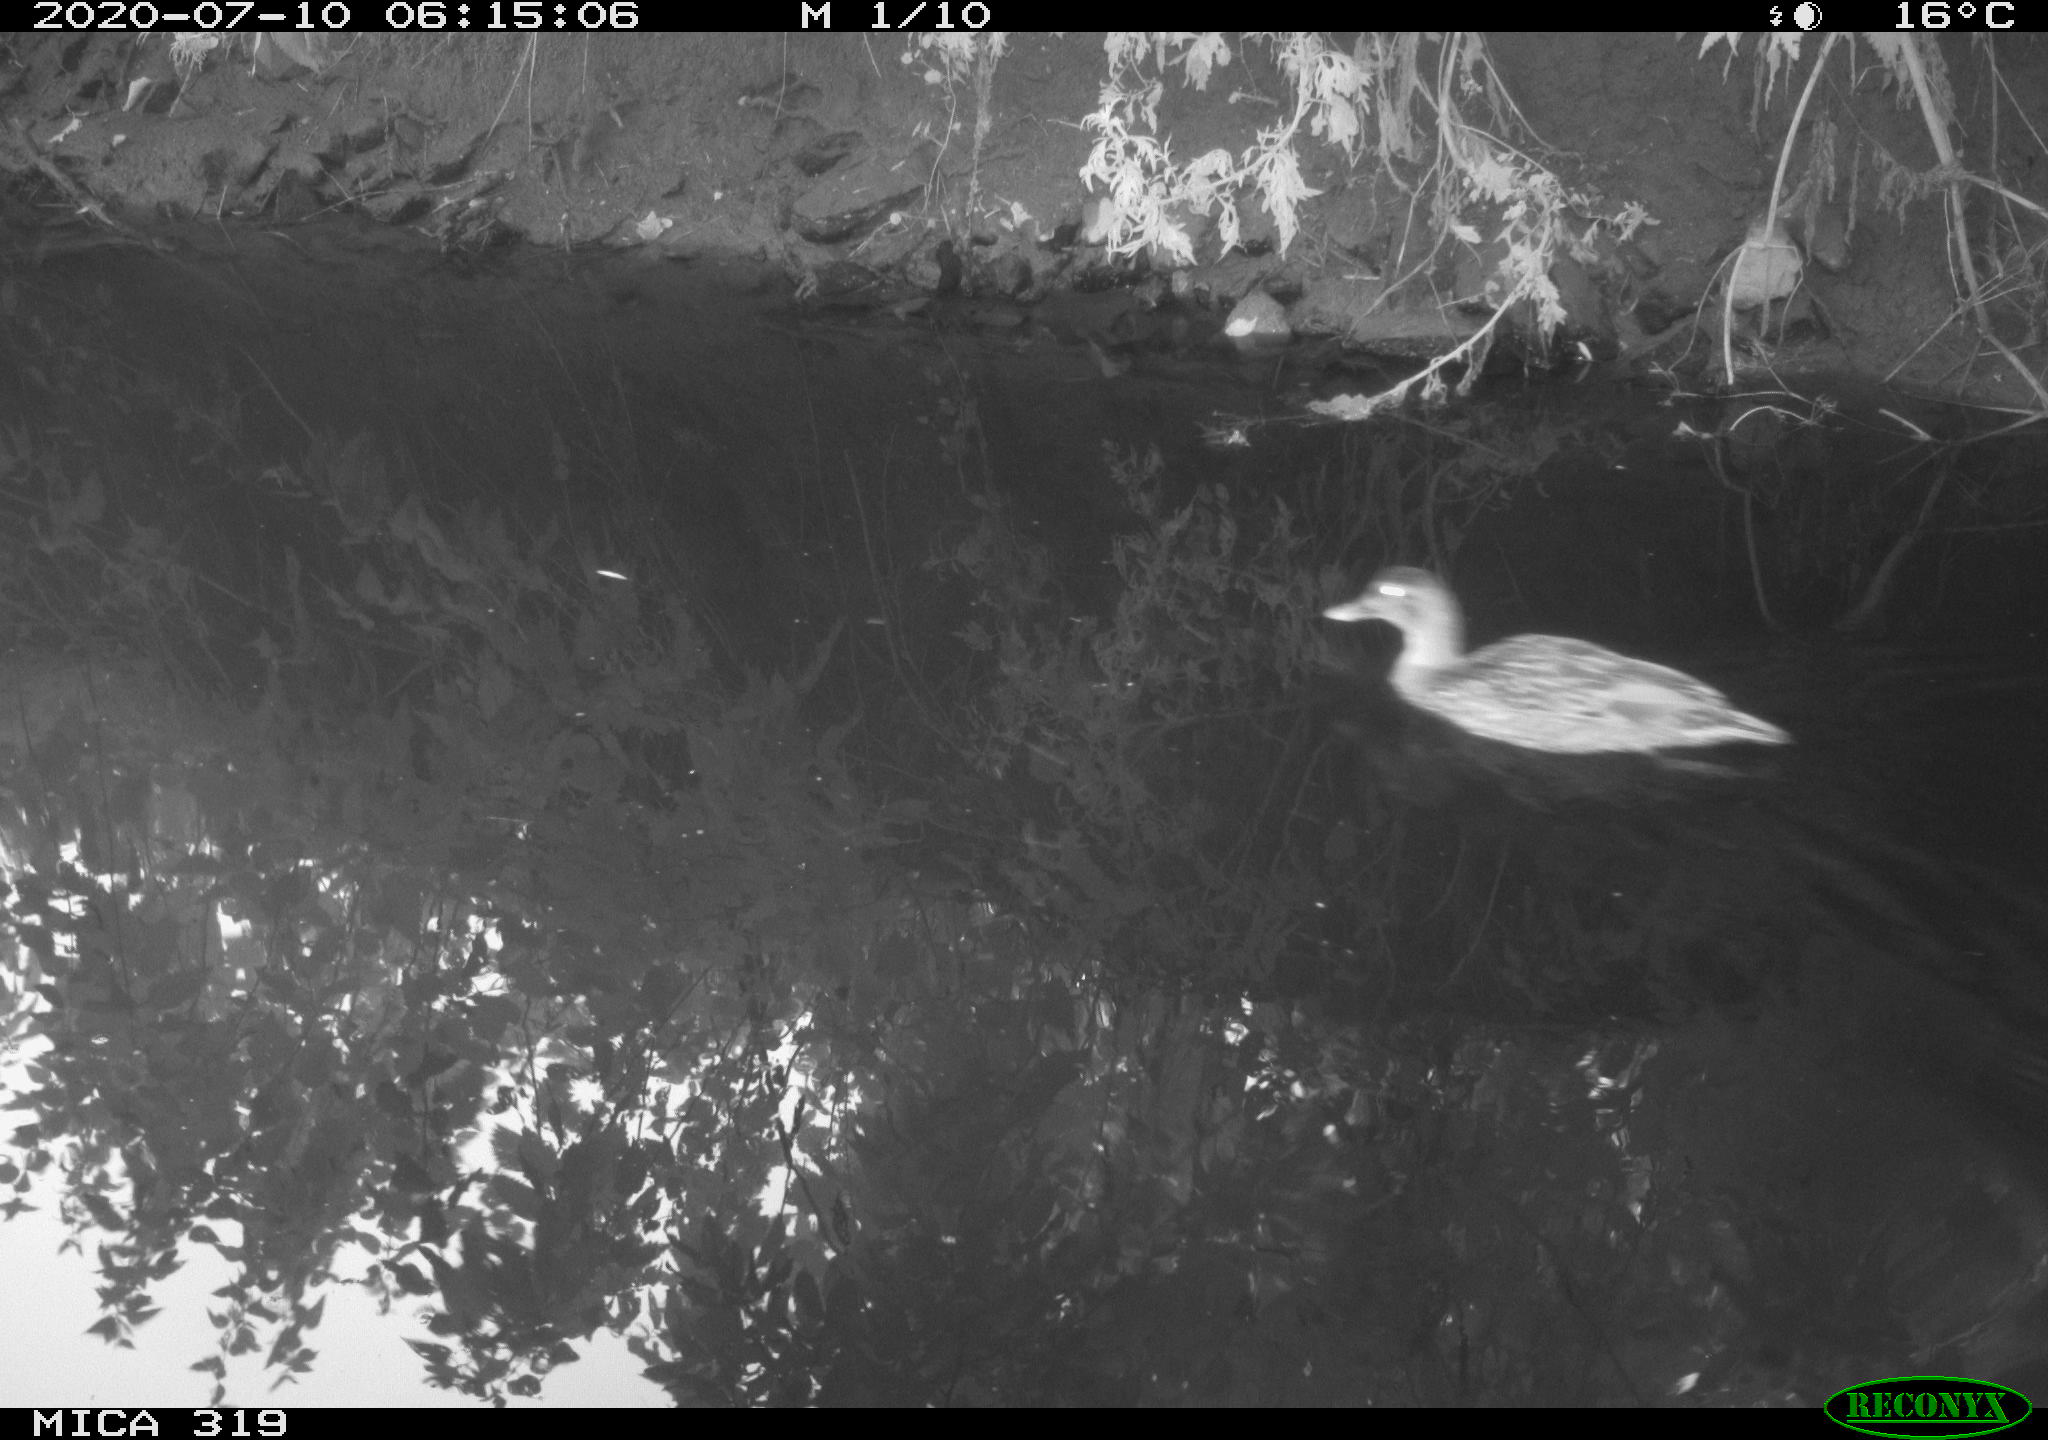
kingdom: Animalia
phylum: Chordata
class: Aves
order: Anseriformes
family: Anatidae
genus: Anas
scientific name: Anas platyrhynchos
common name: Mallard
